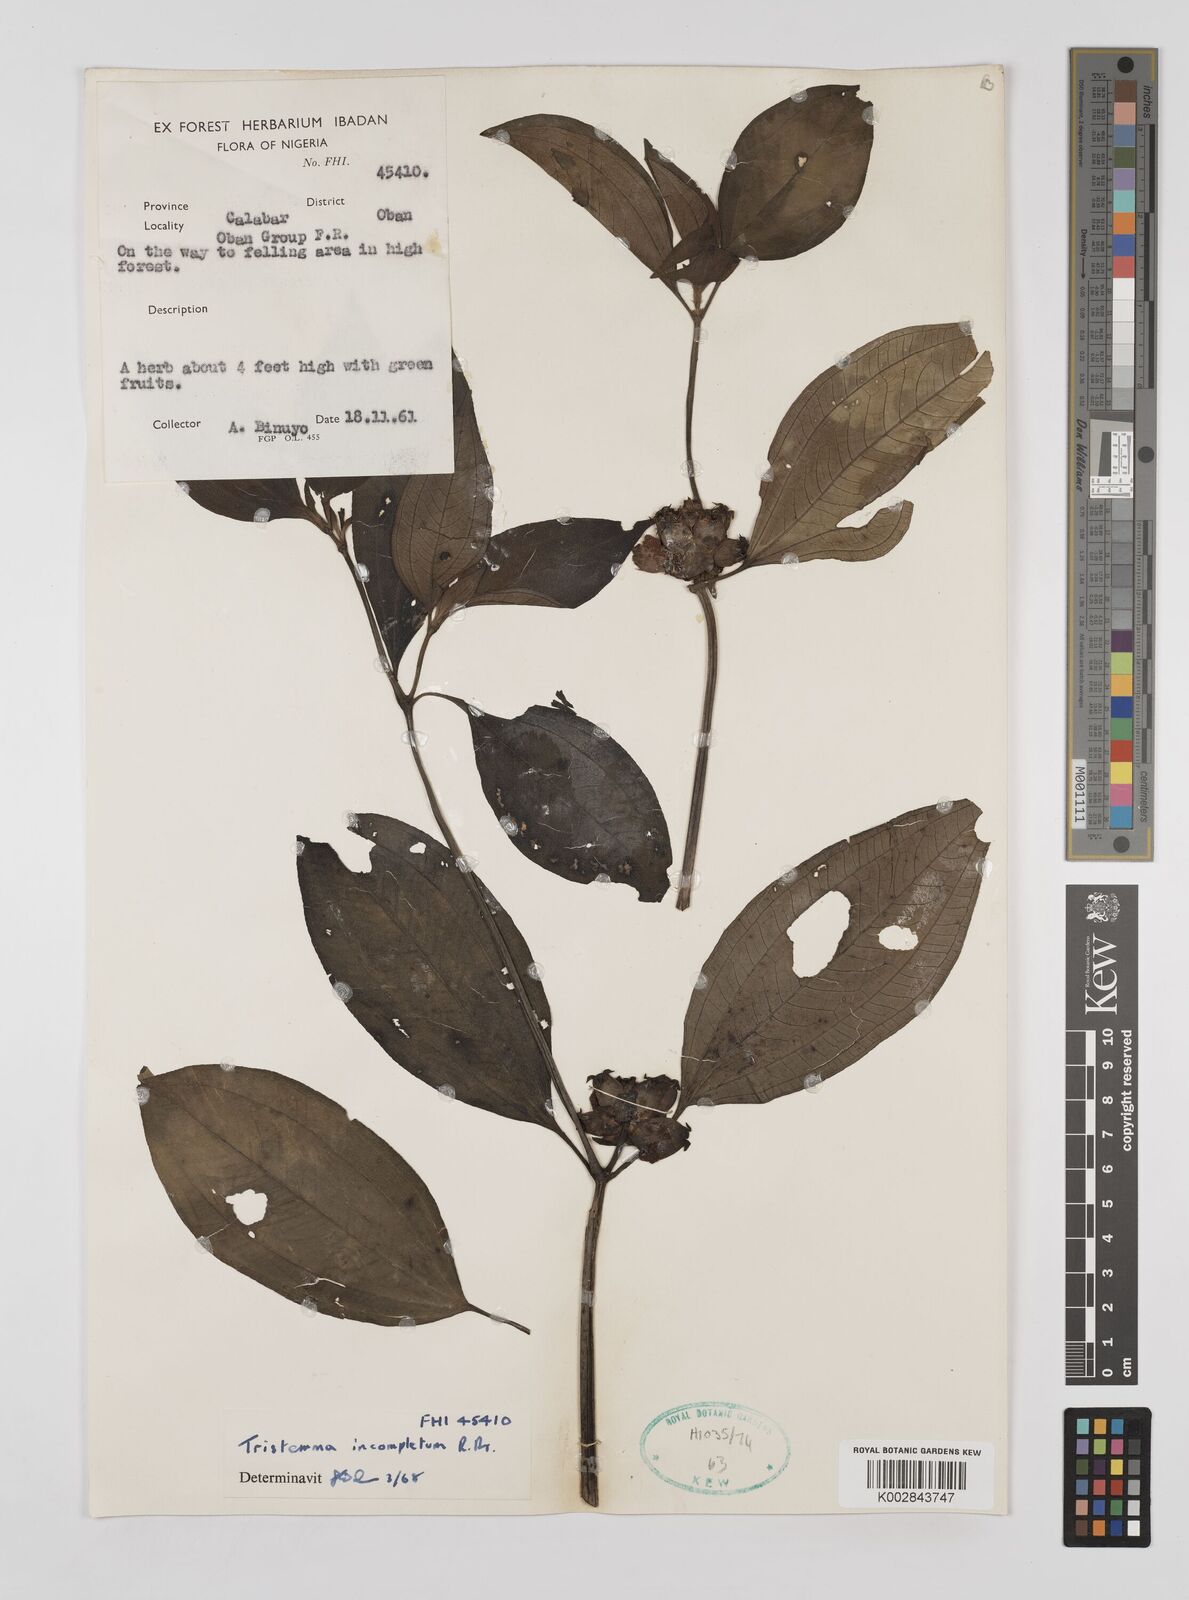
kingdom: Plantae
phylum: Tracheophyta
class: Magnoliopsida
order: Myrtales
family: Melastomataceae
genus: Tristemma
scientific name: Tristemma mauritianum
